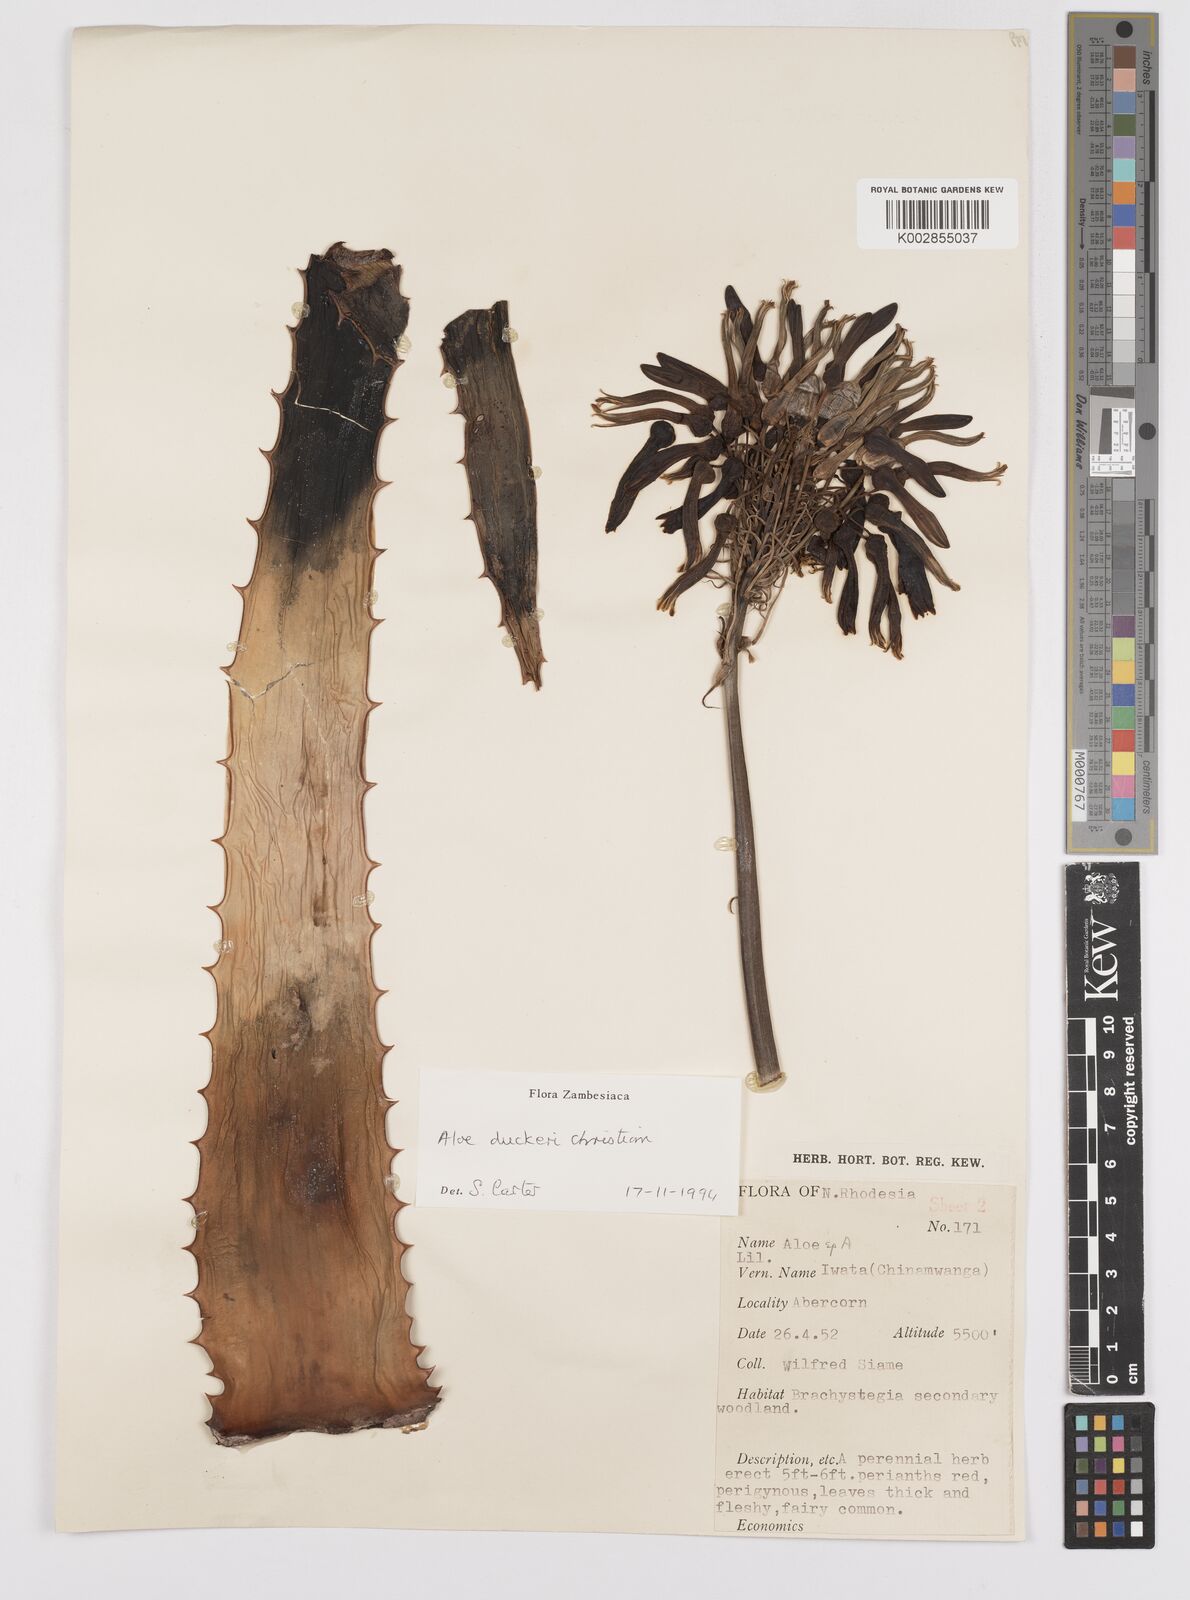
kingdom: Plantae
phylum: Tracheophyta
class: Liliopsida
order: Asparagales
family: Asphodelaceae
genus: Aloe
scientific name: Aloe duckeri
